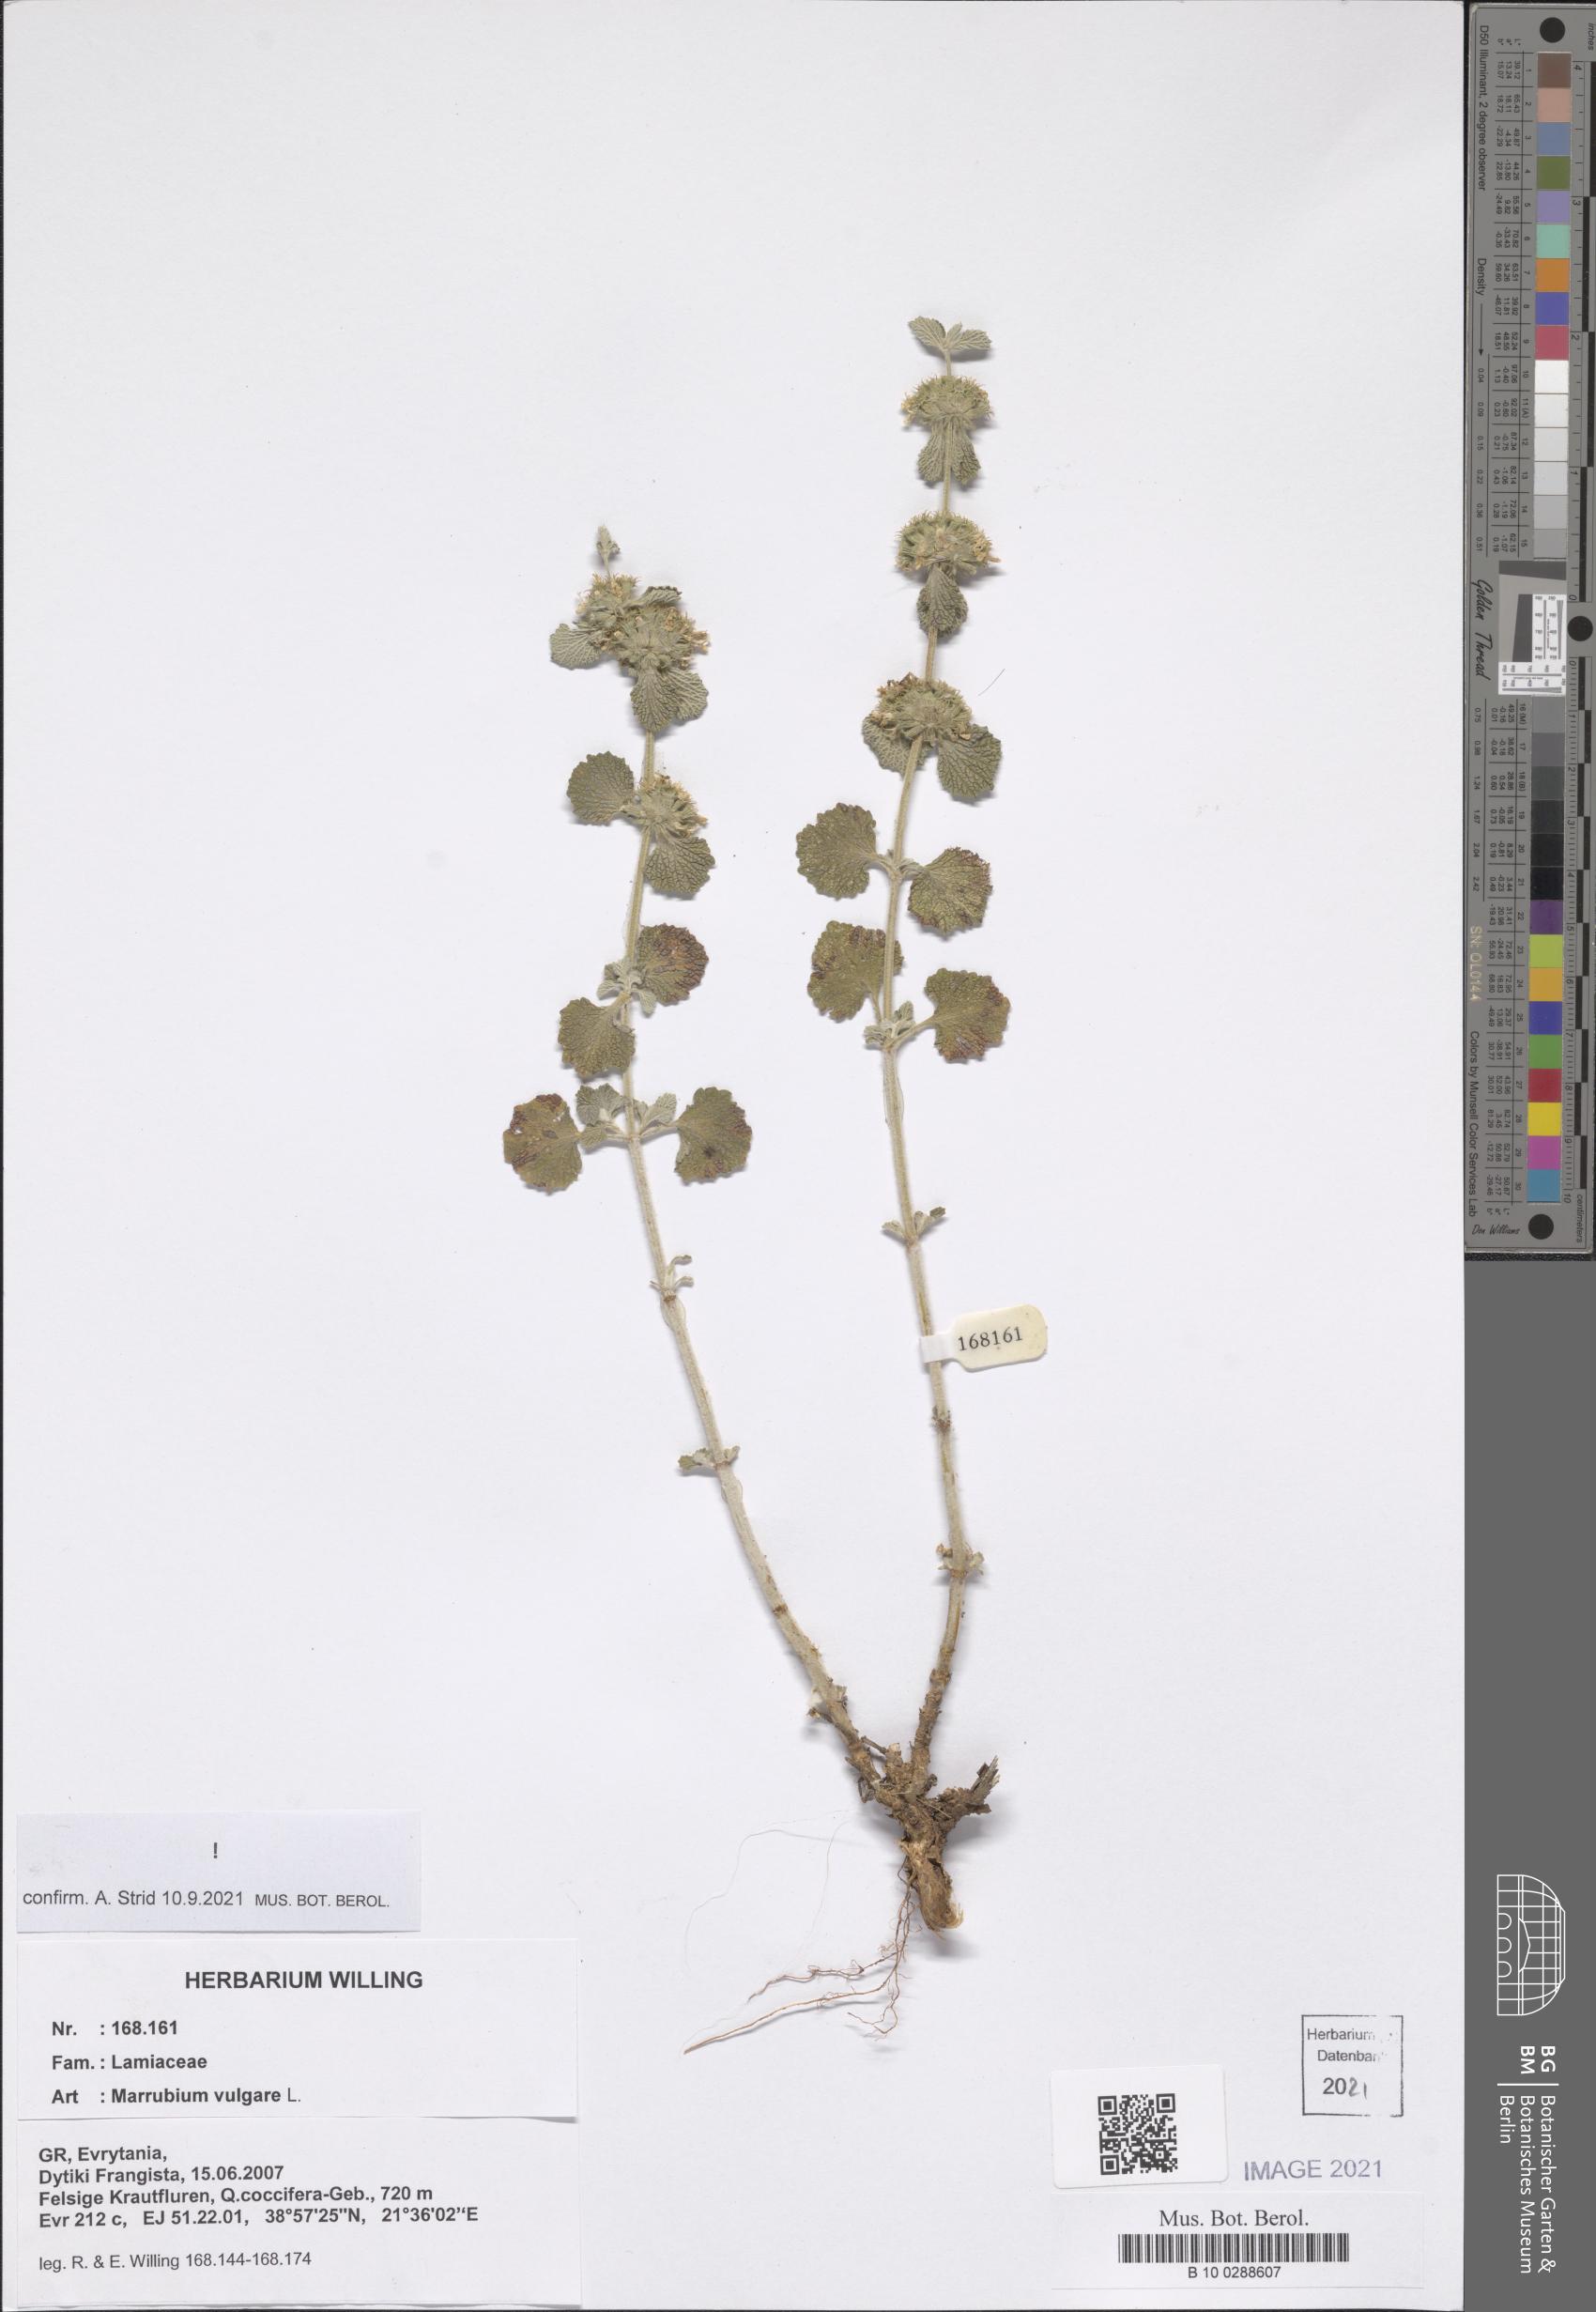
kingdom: Plantae
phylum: Tracheophyta
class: Magnoliopsida
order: Lamiales
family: Lamiaceae
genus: Marrubium
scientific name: Marrubium vulgare
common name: Horehound
